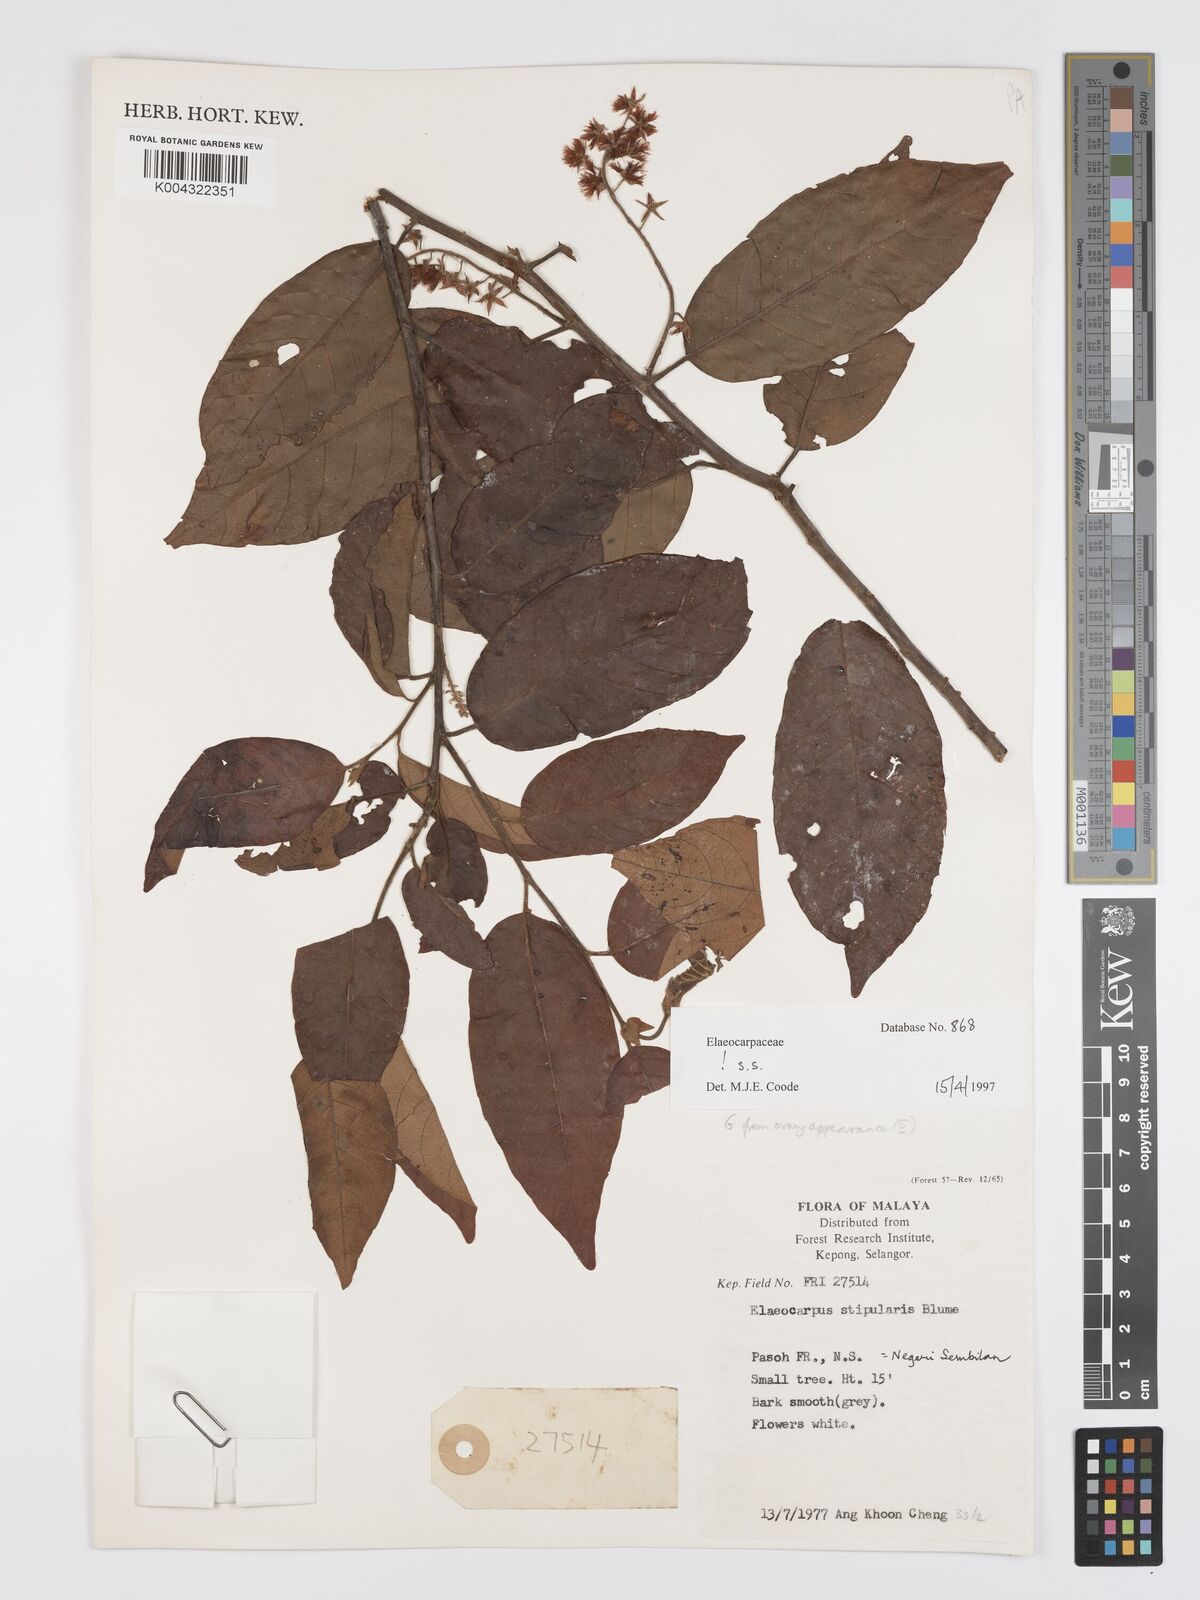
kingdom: Plantae
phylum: Tracheophyta
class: Magnoliopsida
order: Oxalidales
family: Elaeocarpaceae
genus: Elaeocarpus
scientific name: Elaeocarpus stipularis
